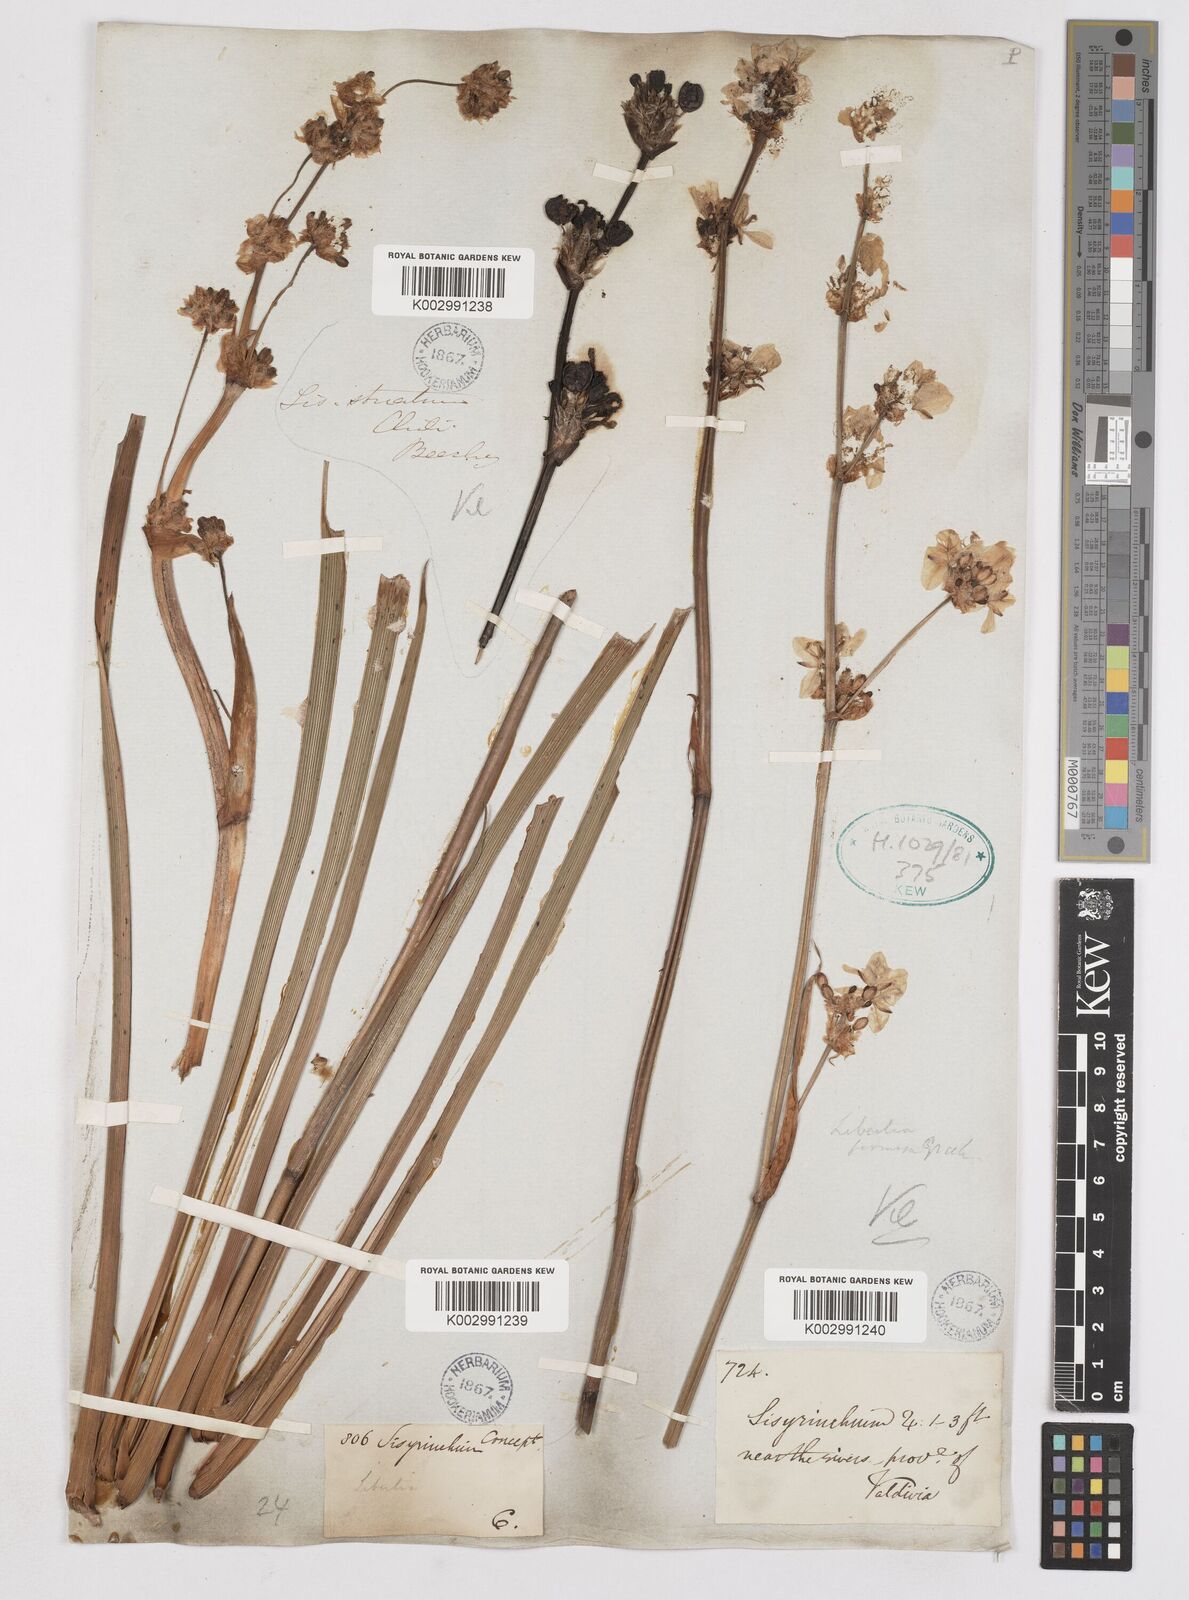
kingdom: Plantae
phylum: Tracheophyta
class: Liliopsida
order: Asparagales
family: Iridaceae
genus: Libertia
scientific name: Libertia chilensis
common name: Satin flower
